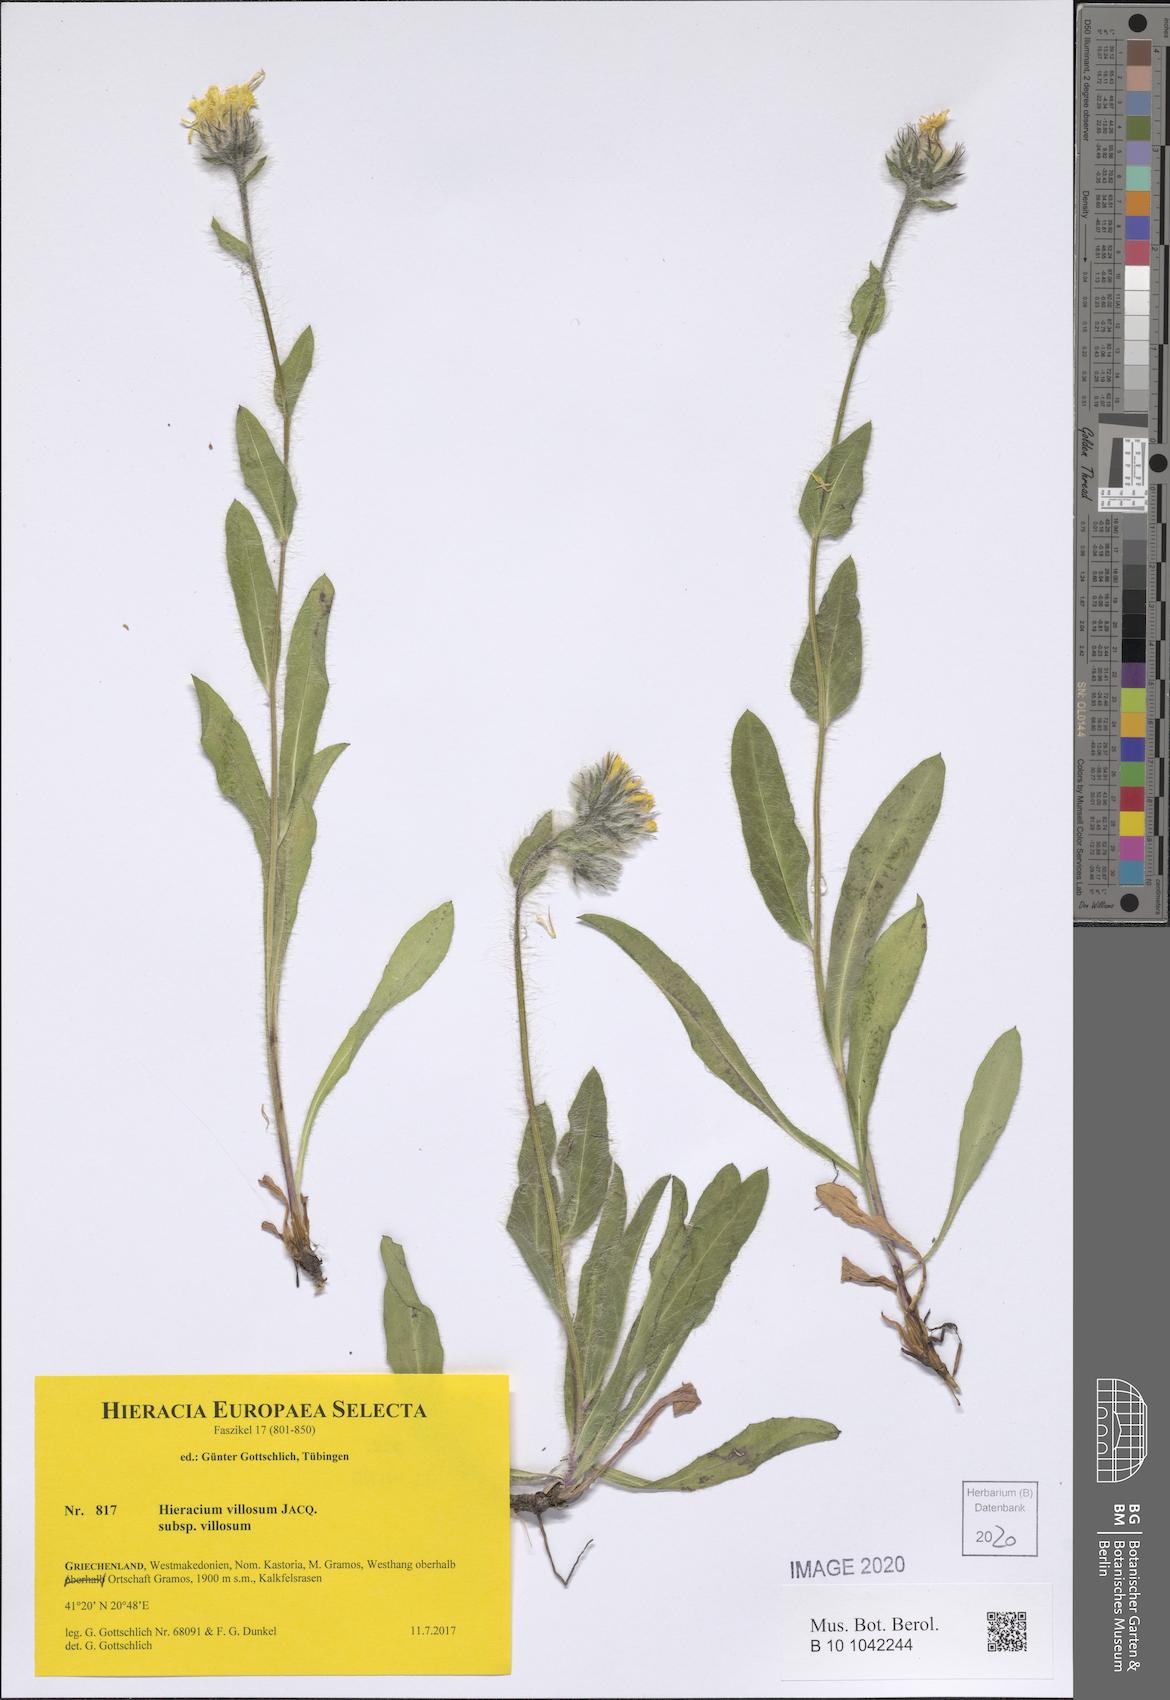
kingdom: Plantae
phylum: Tracheophyta
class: Magnoliopsida
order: Asterales
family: Asteraceae
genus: Hieracium
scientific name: Hieracium villosum
